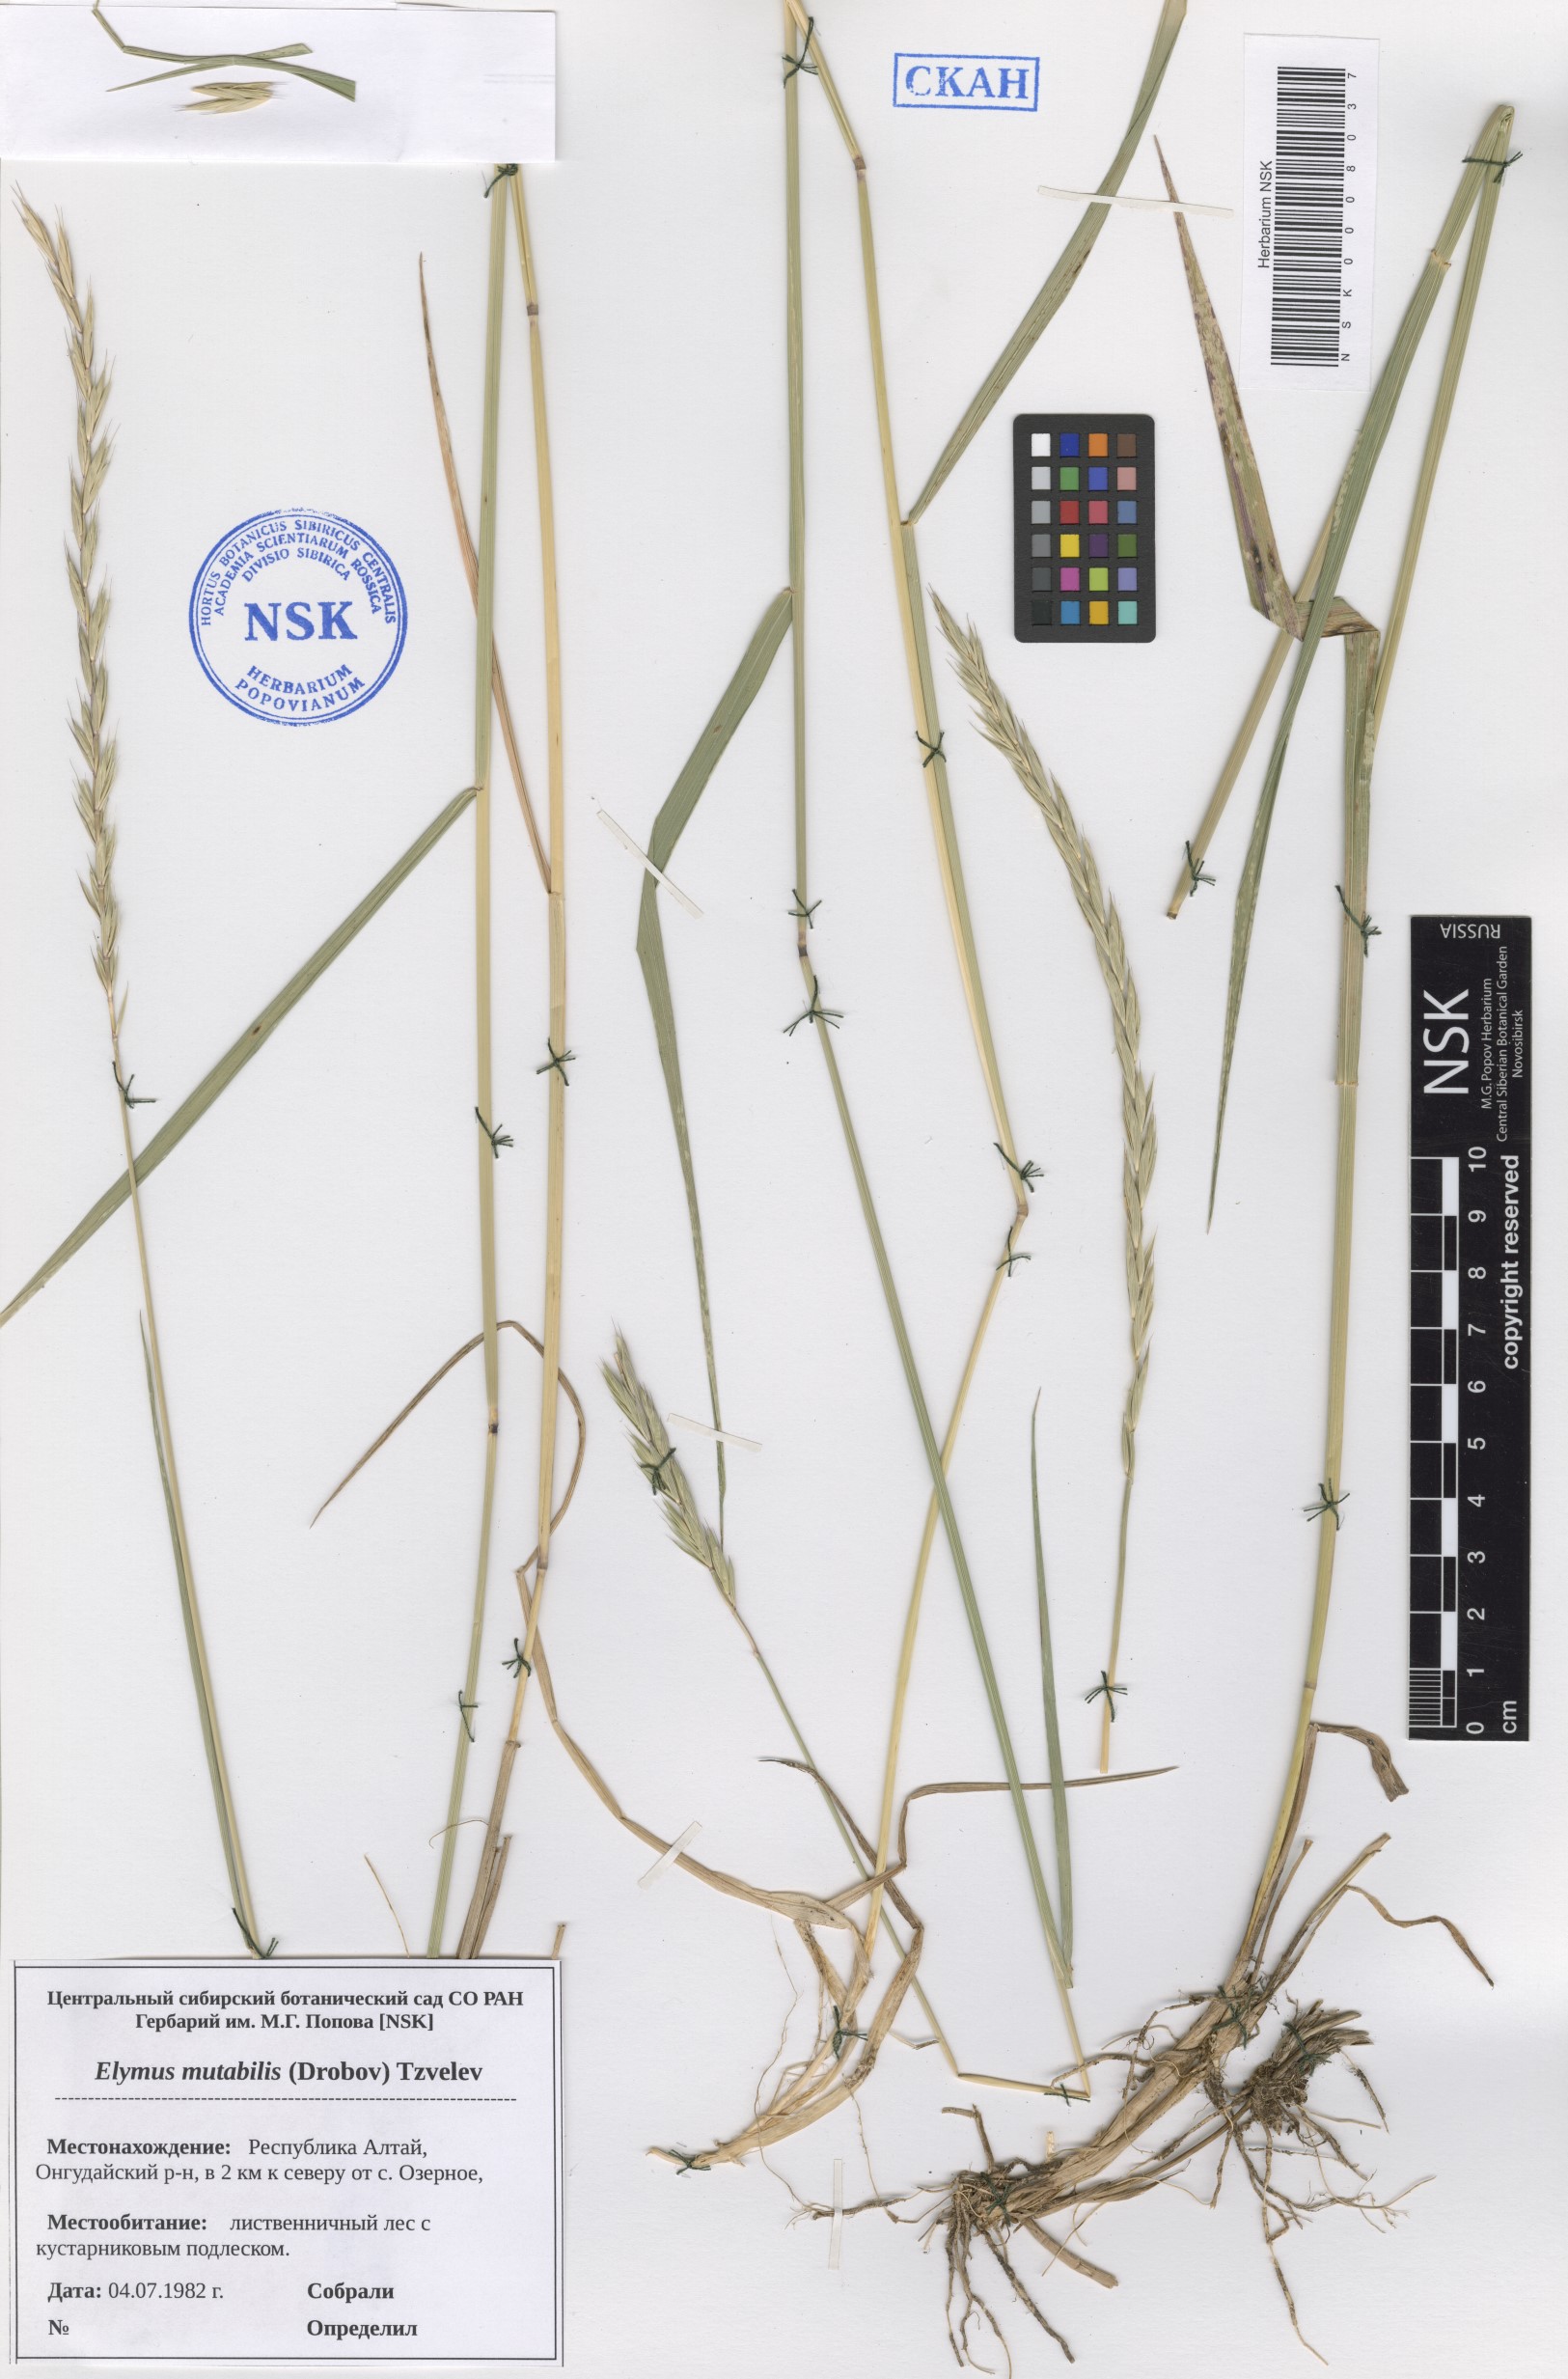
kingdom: Plantae
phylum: Tracheophyta
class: Liliopsida
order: Poales
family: Poaceae
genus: Elymus
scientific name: Elymus mutabilis
